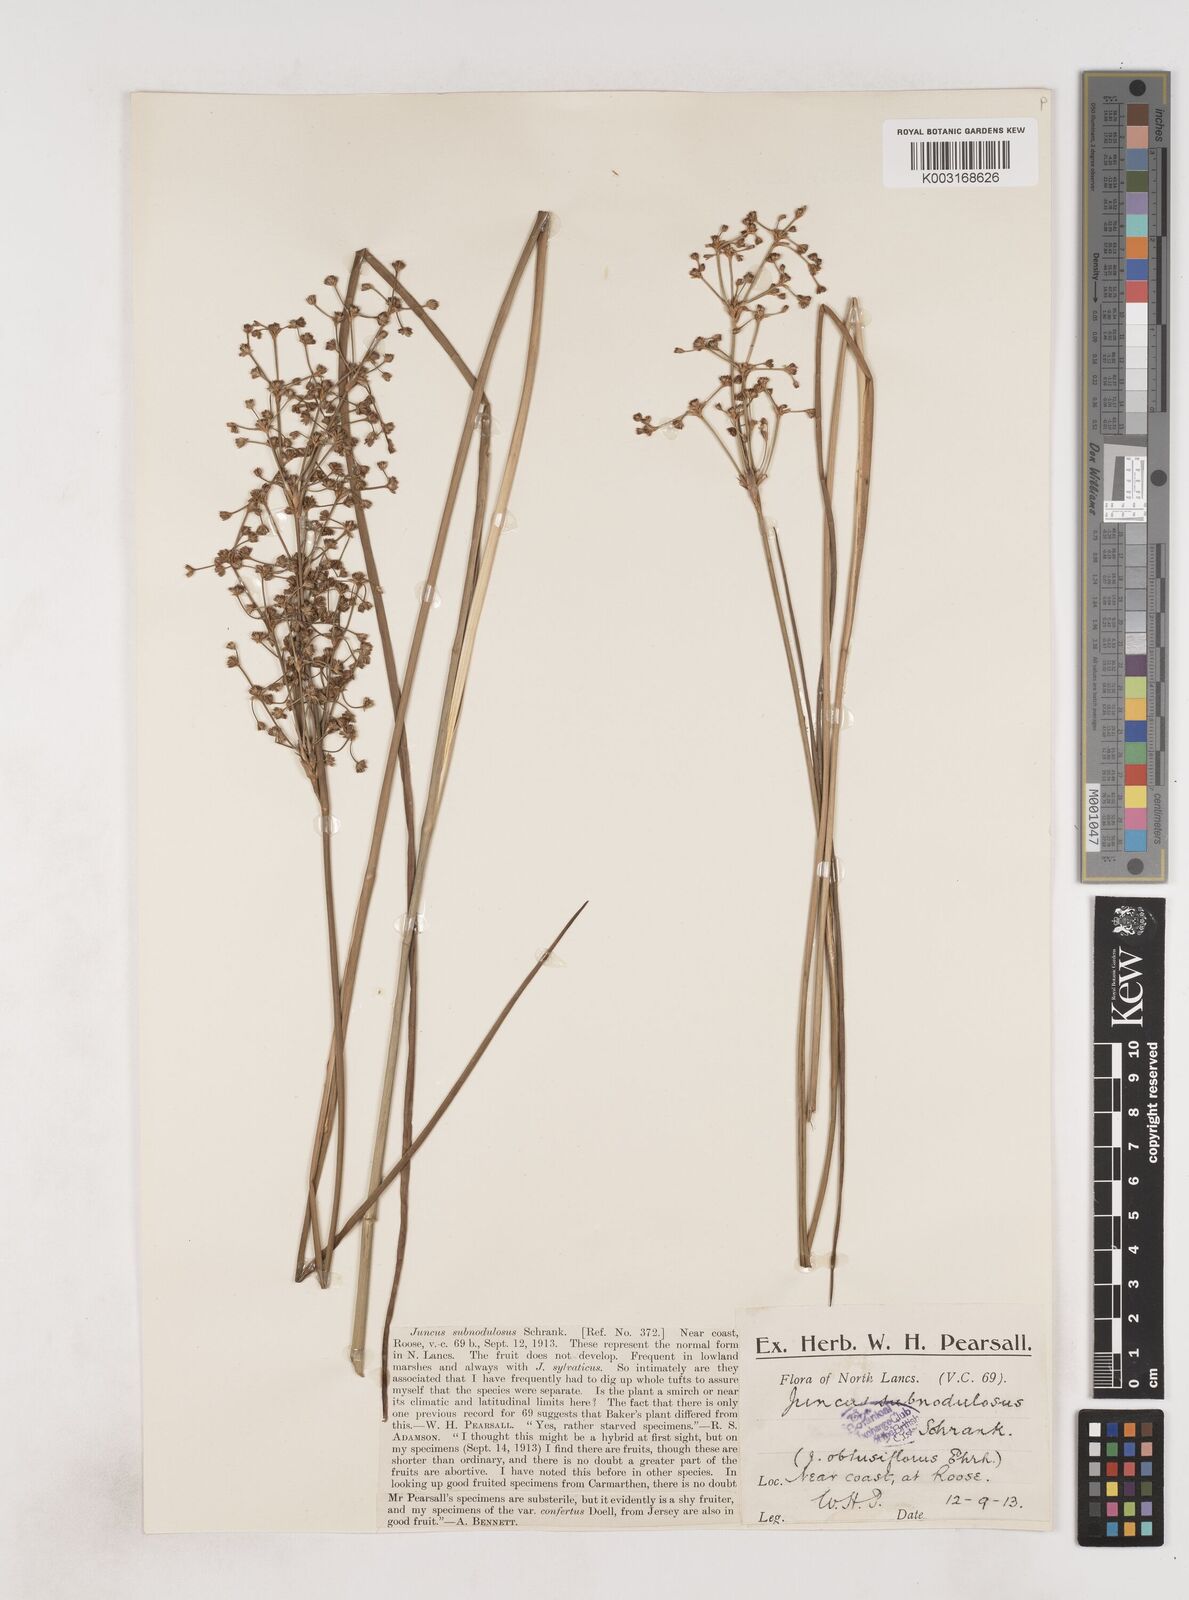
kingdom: Plantae
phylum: Tracheophyta
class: Liliopsida
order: Poales
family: Juncaceae
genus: Juncus
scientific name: Juncus subnodulosus
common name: Blunt-flowered rush
